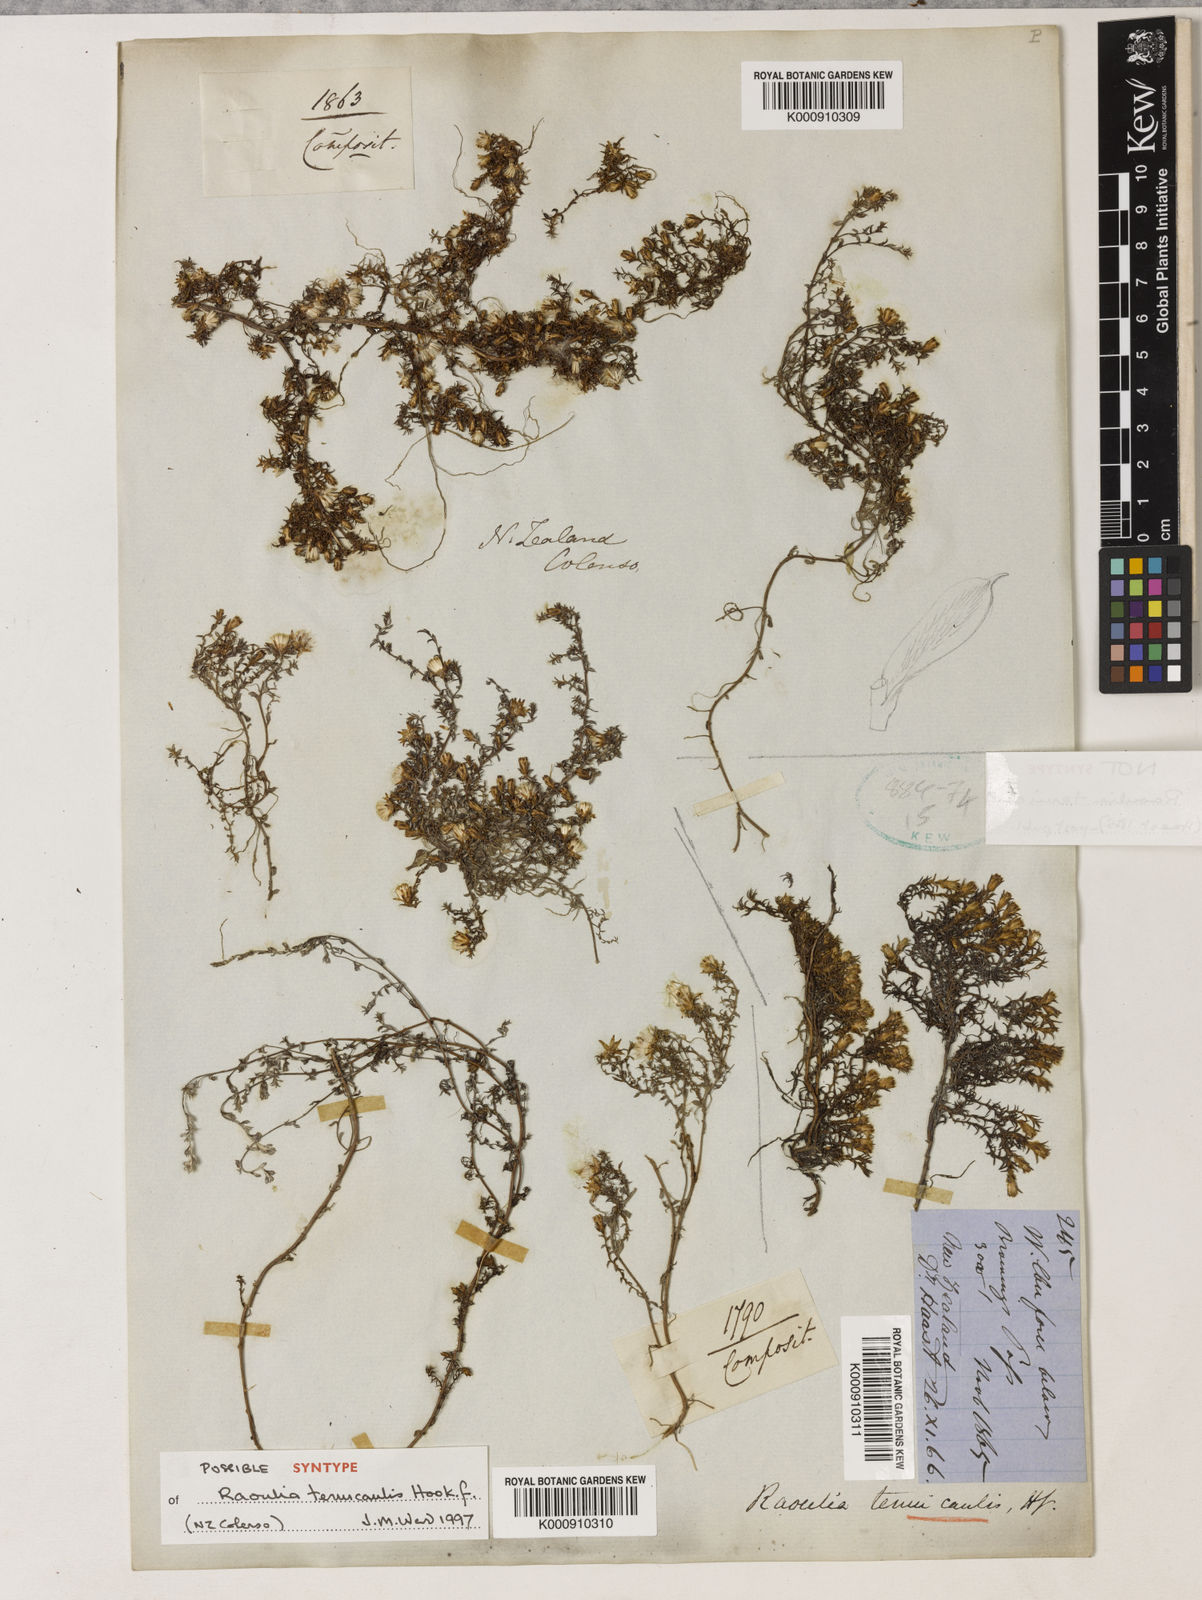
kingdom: Plantae
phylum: Tracheophyta
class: Magnoliopsida
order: Asterales
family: Asteraceae
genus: Raoulia
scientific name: Raoulia tenuicaulis
